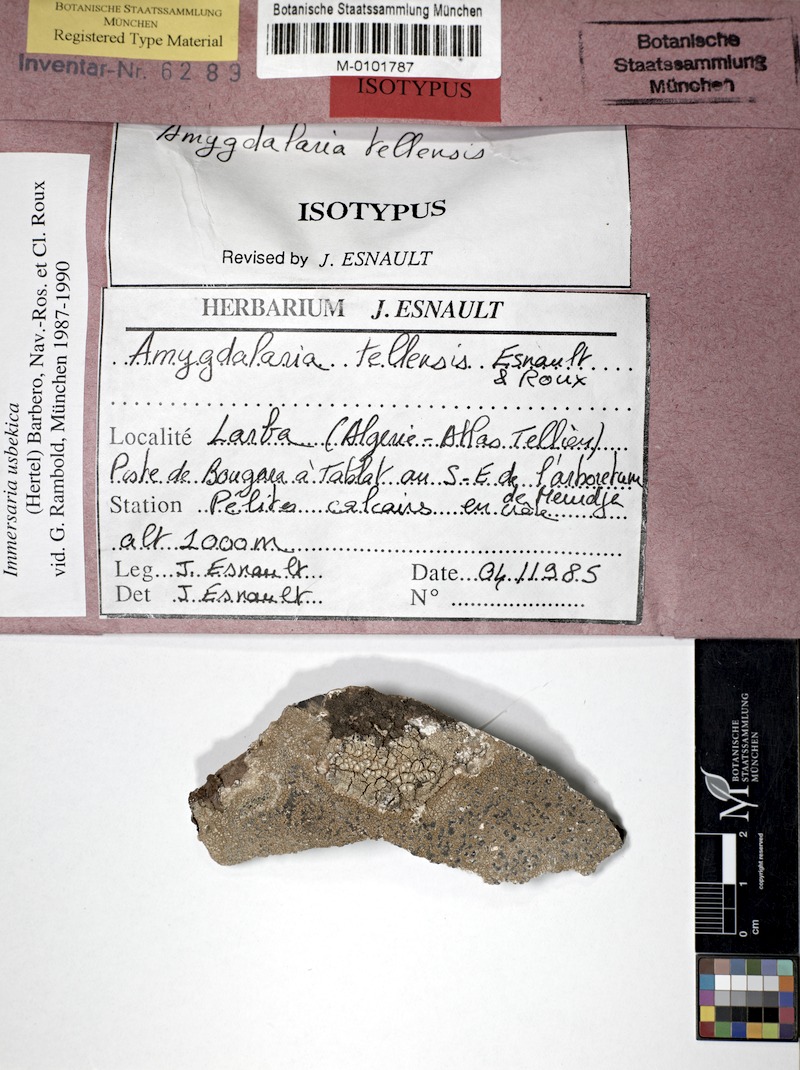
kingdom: Fungi
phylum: Ascomycota
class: Lecanoromycetes
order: Lecideales
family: Lecideaceae
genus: Immersaria
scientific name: Immersaria usbekica
